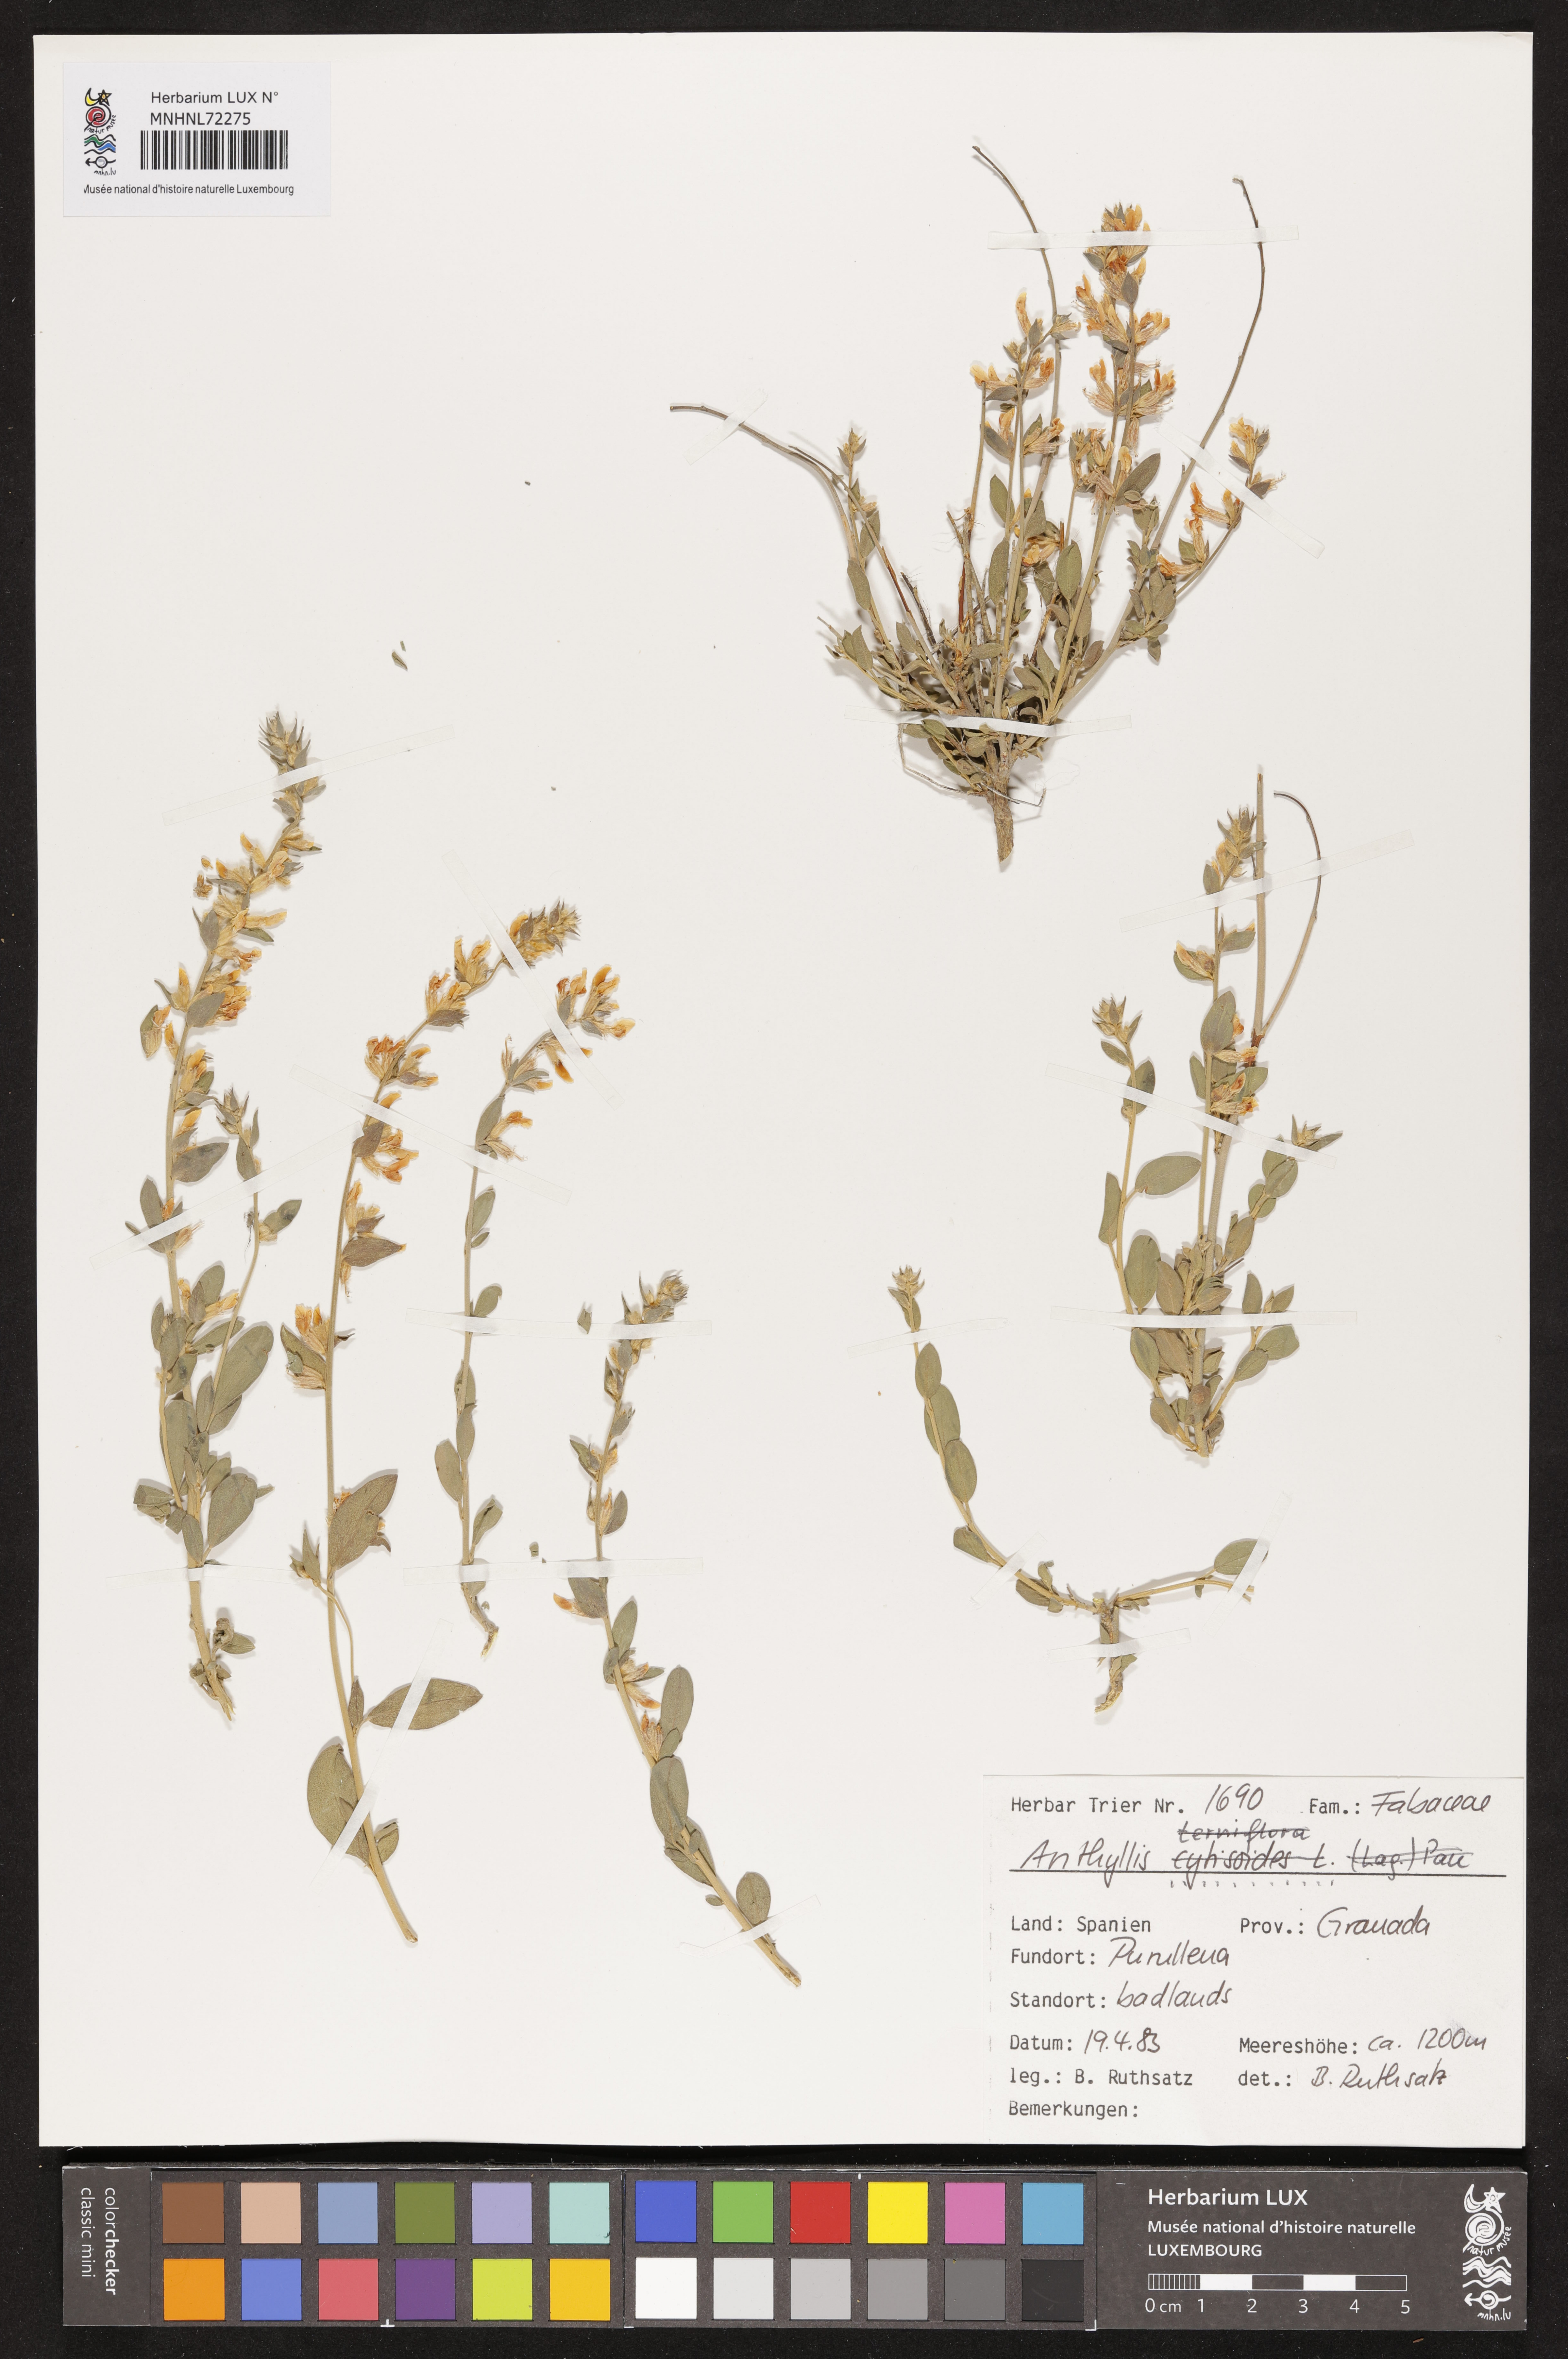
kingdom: Plantae
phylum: Tracheophyta
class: Magnoliopsida
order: Fabales
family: Fabaceae
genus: Anthyllis
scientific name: Anthyllis
